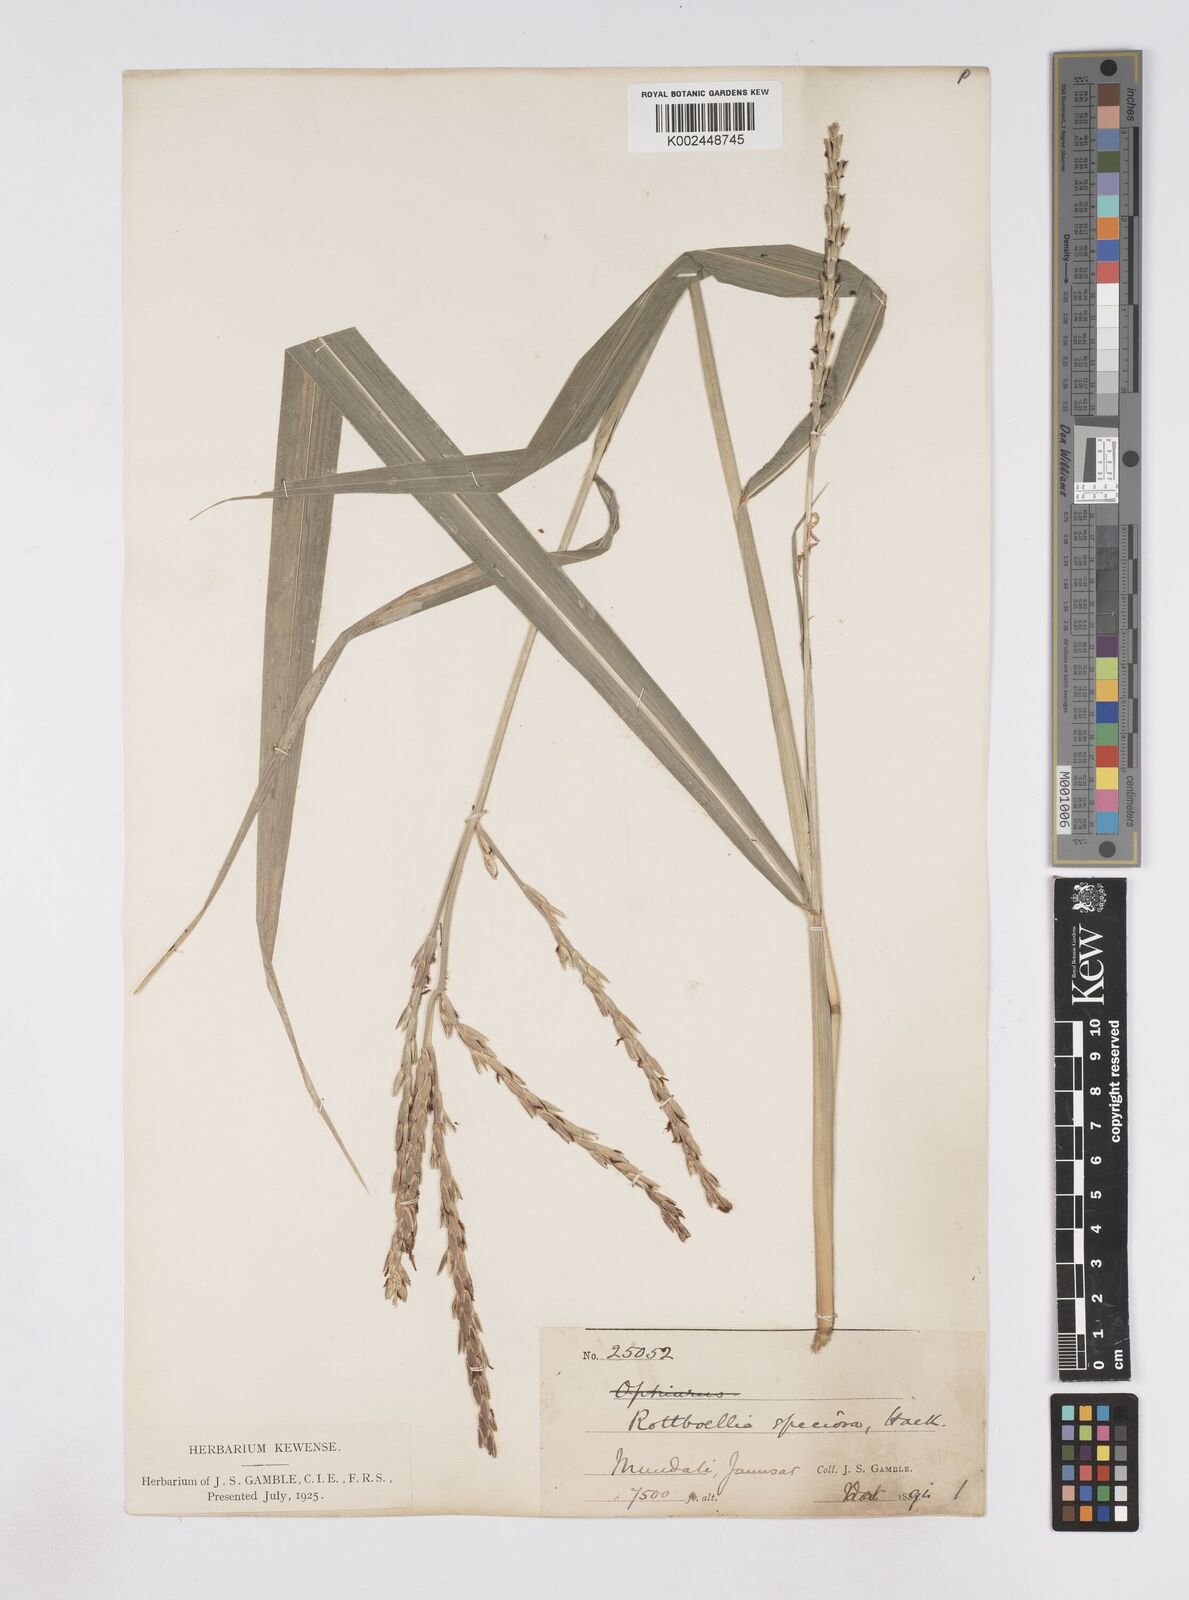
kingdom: Plantae
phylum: Tracheophyta
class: Liliopsida
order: Poales
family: Poaceae
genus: Phacelurus
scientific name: Phacelurus speciosus
